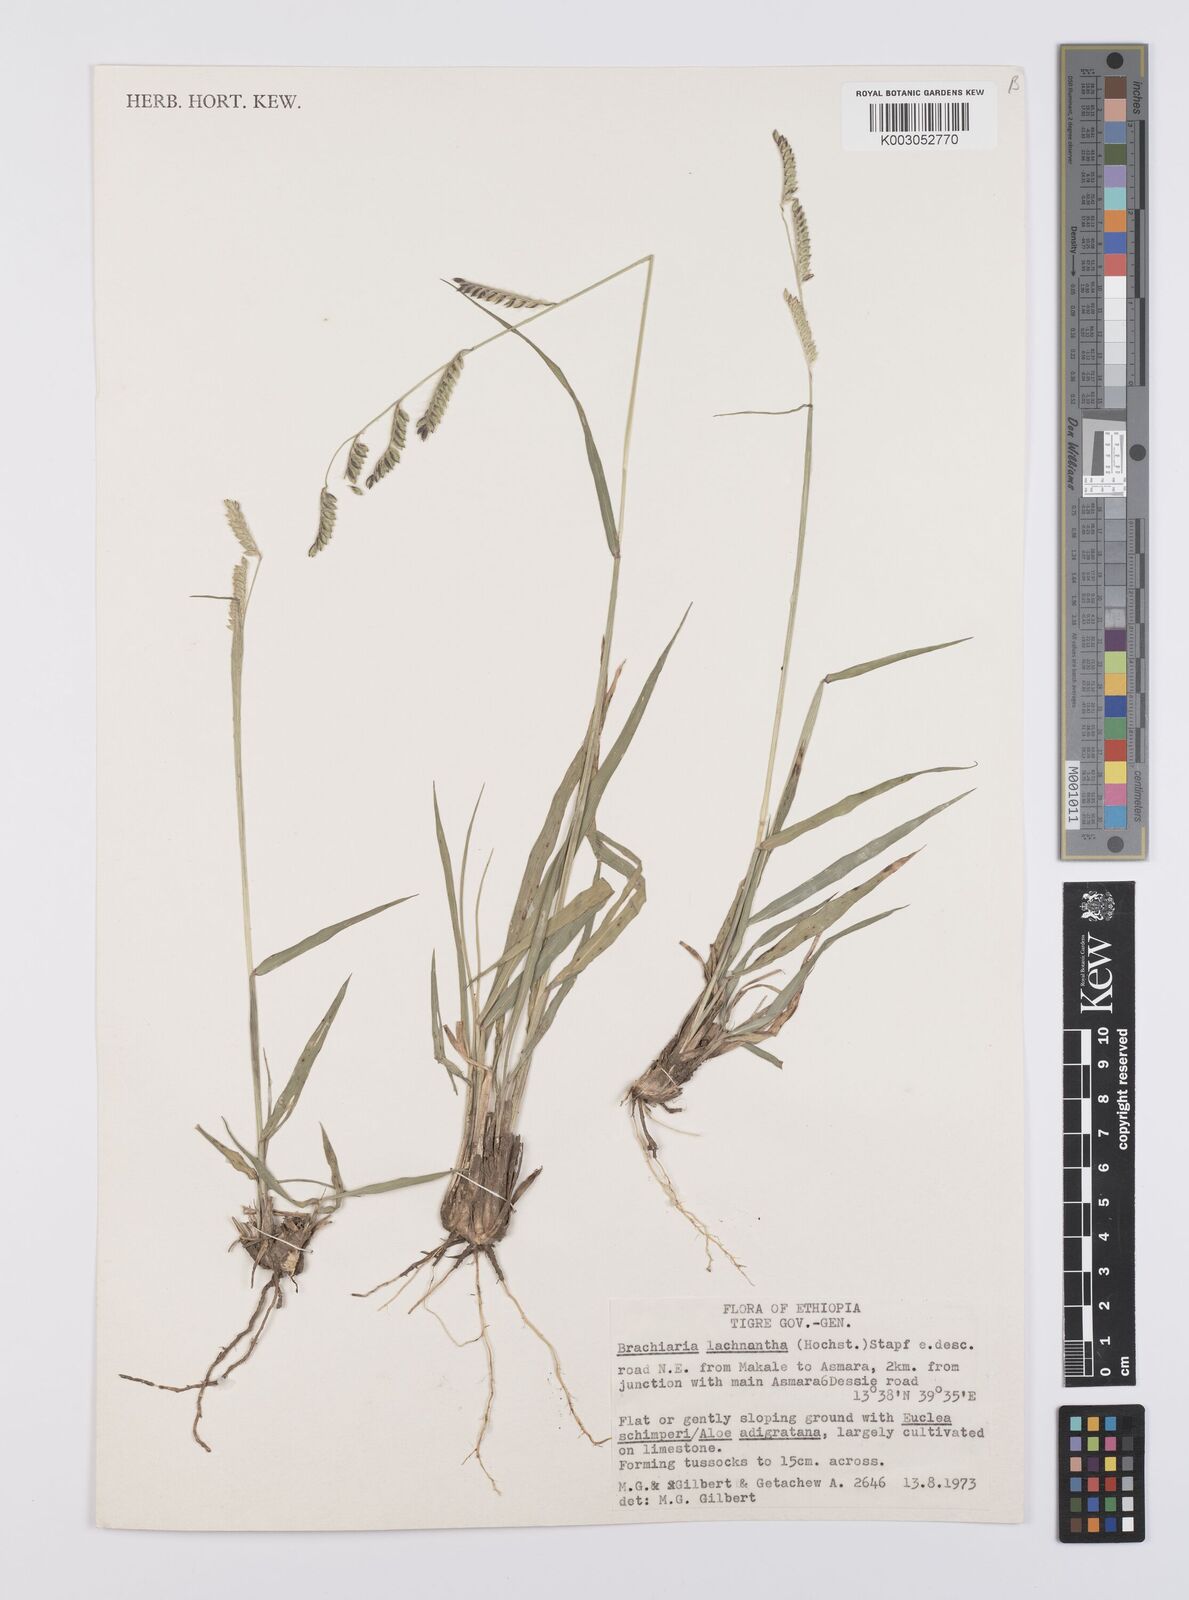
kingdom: Plantae
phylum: Tracheophyta
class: Liliopsida
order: Poales
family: Poaceae
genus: Urochloa
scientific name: Urochloa lachnantha
